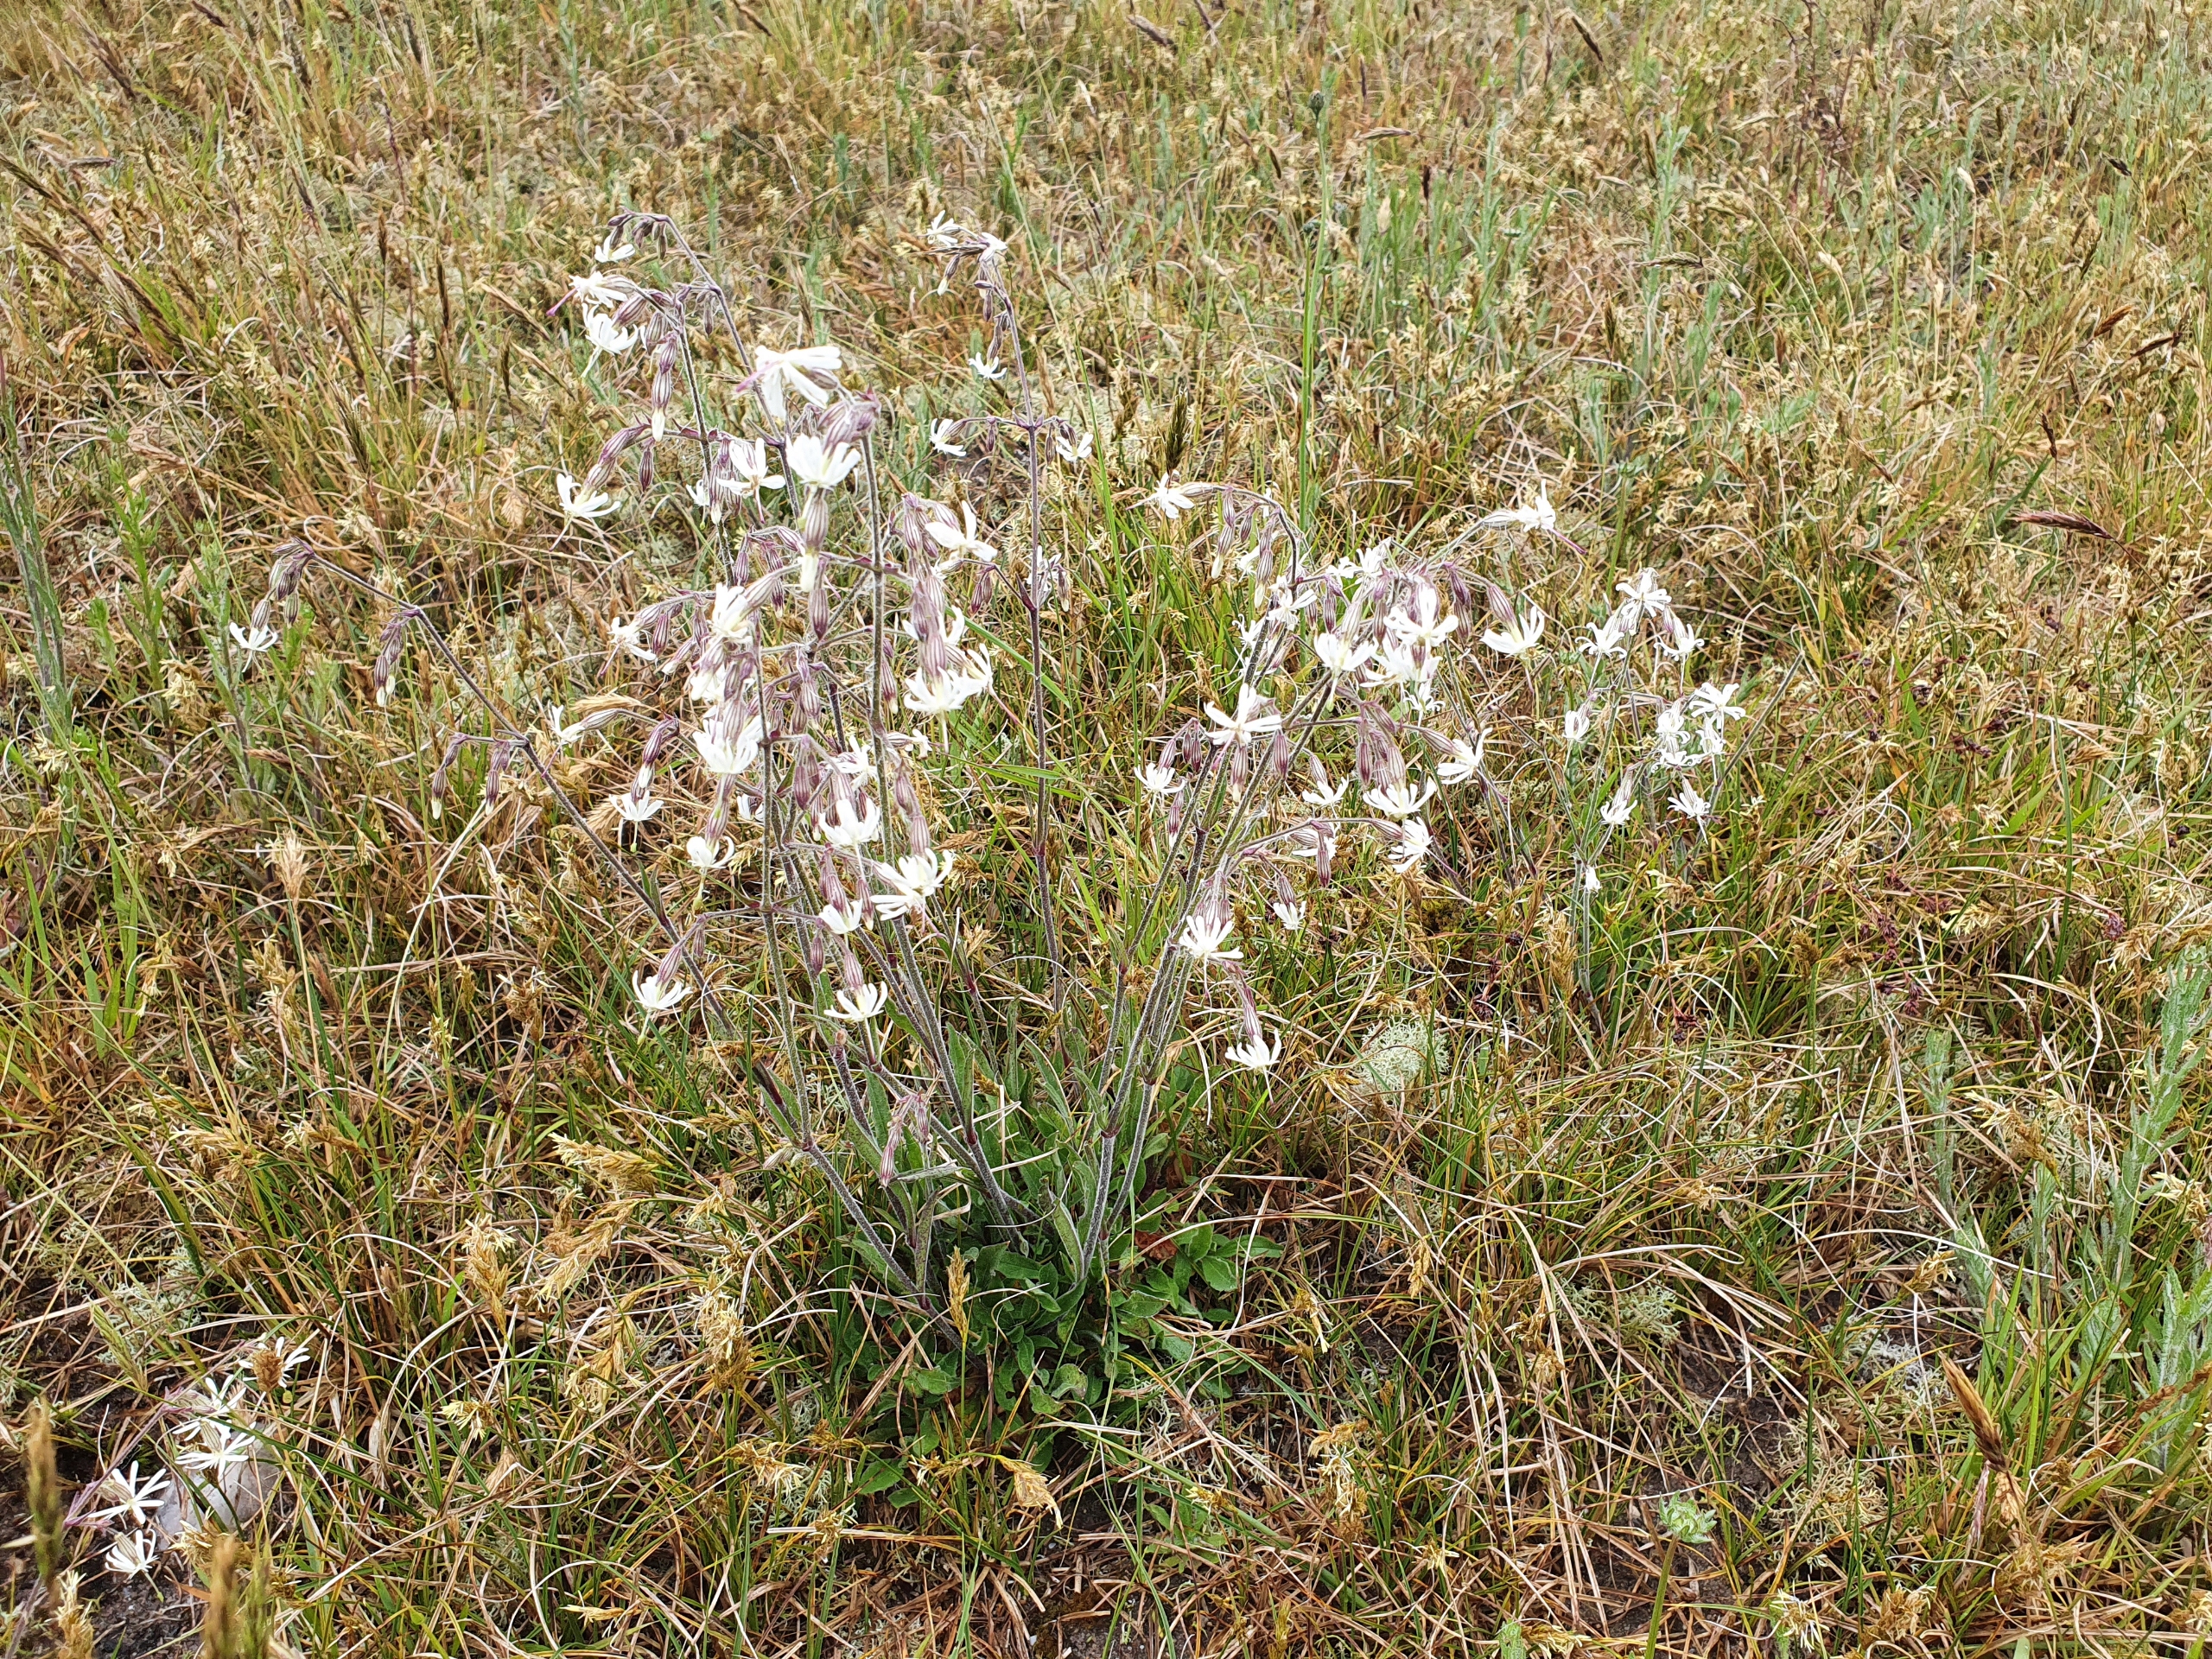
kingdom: Plantae
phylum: Tracheophyta
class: Magnoliopsida
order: Caryophyllales
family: Caryophyllaceae
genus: Silene
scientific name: Silene nutans
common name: Nikkende limurt
